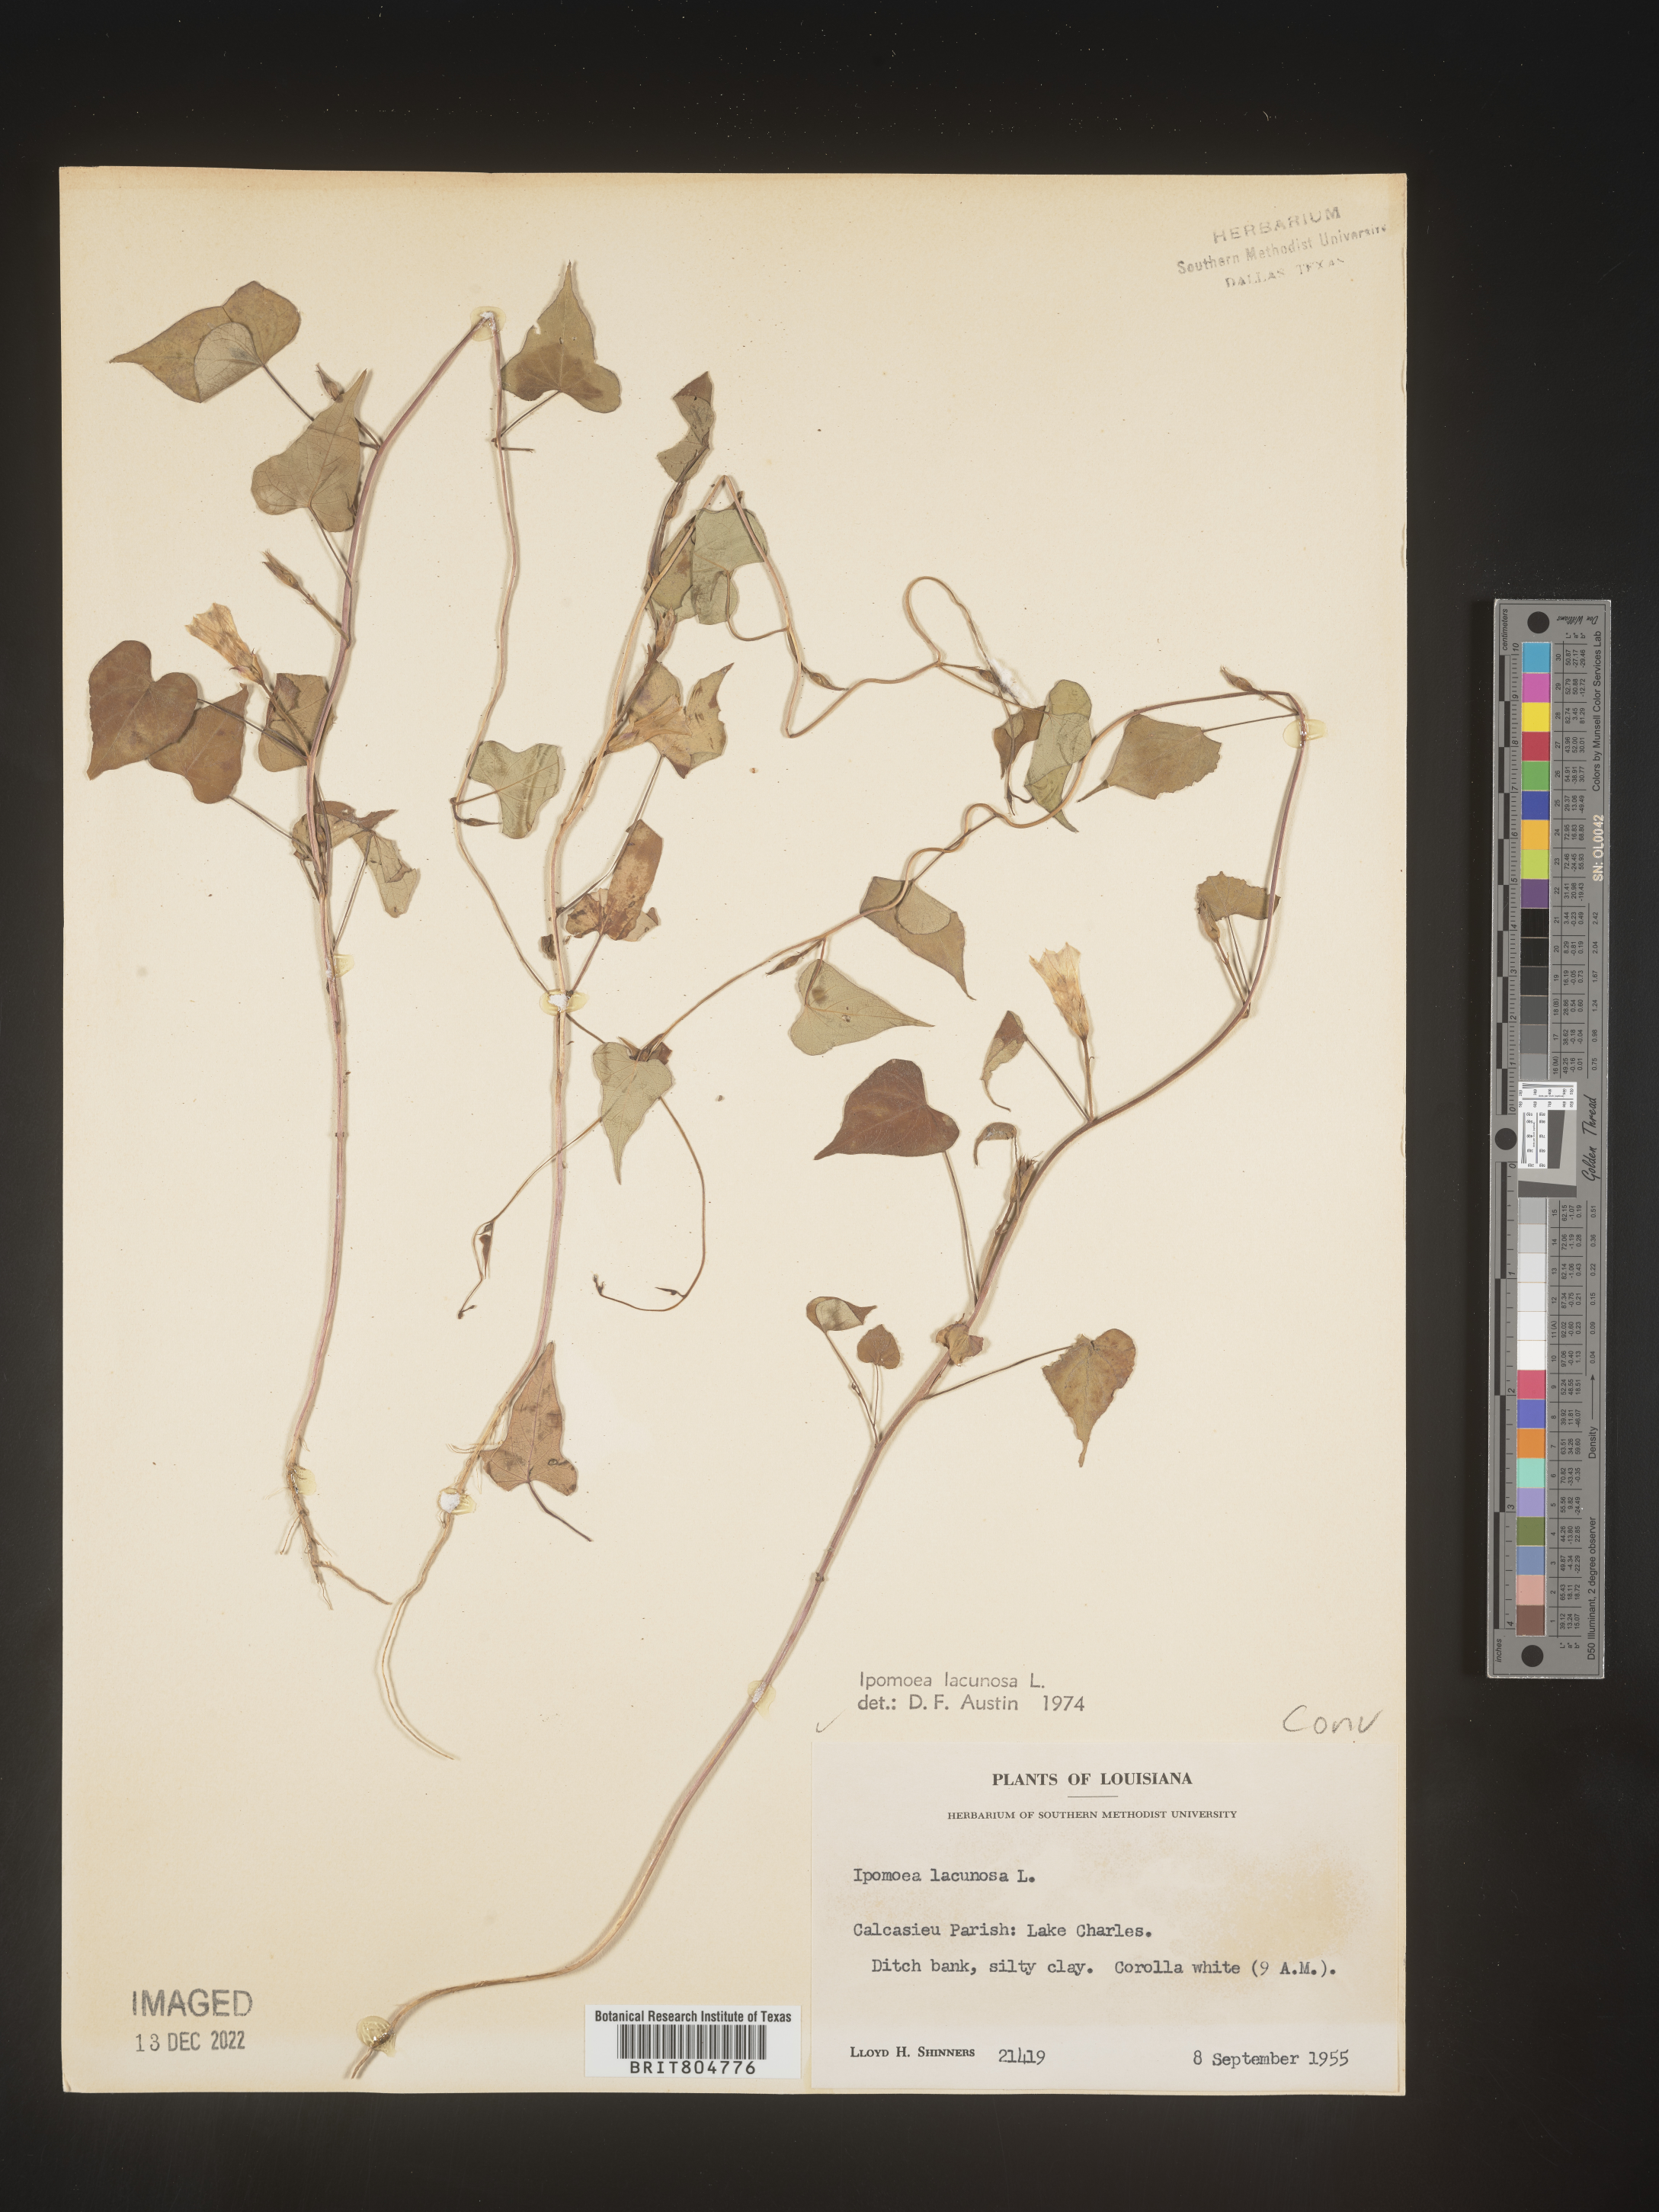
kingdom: Plantae
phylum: Tracheophyta
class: Magnoliopsida
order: Solanales
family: Convolvulaceae
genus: Ipomoea
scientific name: Ipomoea lacunosa
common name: White morning-glory
